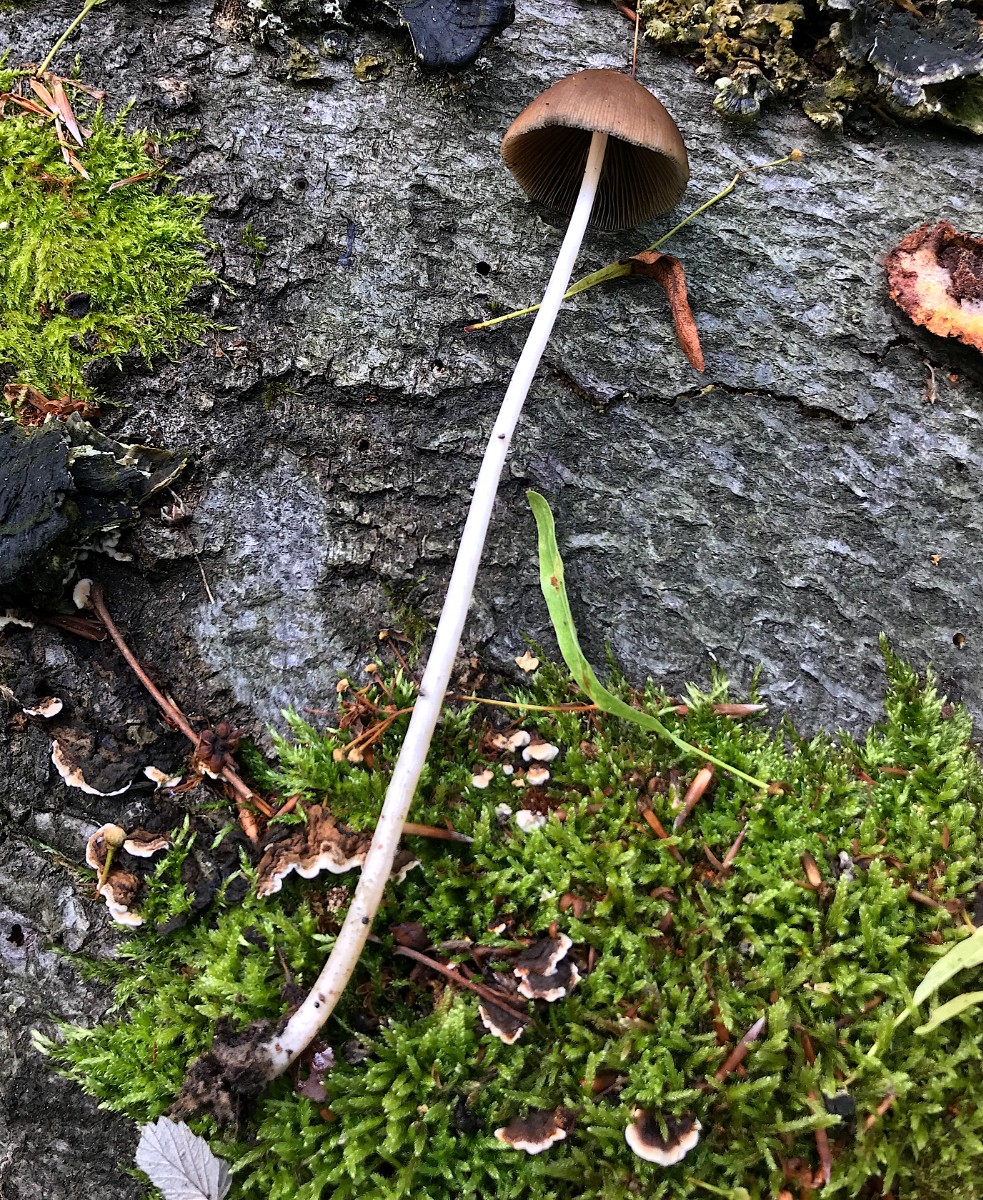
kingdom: Fungi
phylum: Basidiomycota
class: Agaricomycetes
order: Agaricales
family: Psathyrellaceae
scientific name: Psathyrellaceae
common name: mørkhatfamilien
